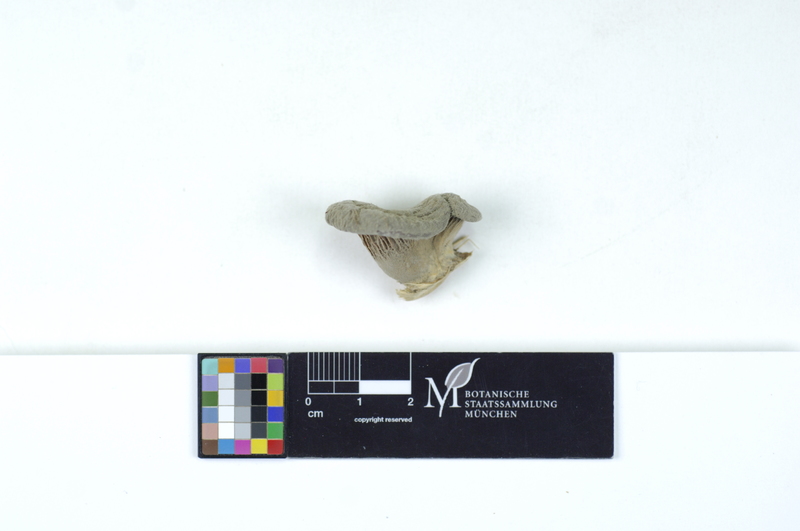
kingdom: Plantae
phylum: Tracheophyta
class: Magnoliopsida
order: Malpighiales
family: Salicaceae
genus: Salix
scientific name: Salix cinerea
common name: Common sallow
